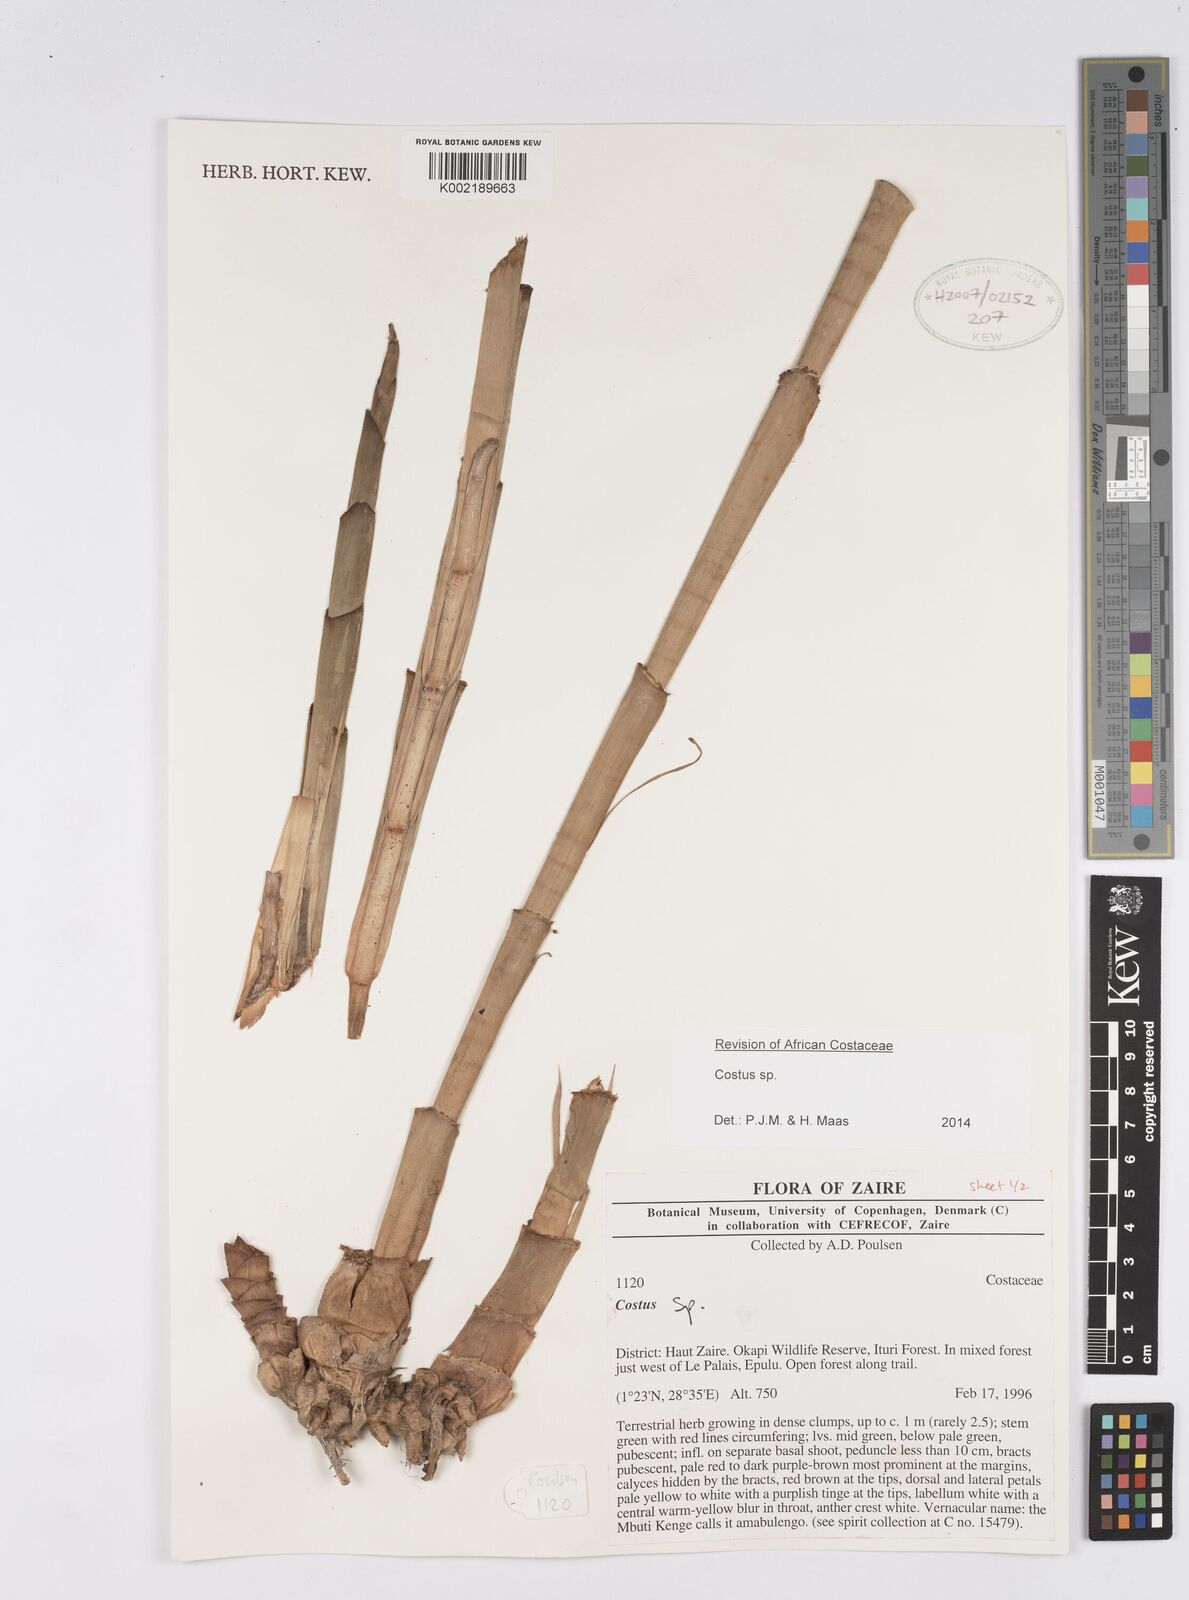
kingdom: Plantae
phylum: Tracheophyta
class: Liliopsida
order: Zingiberales
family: Costaceae
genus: Costus
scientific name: Costus
